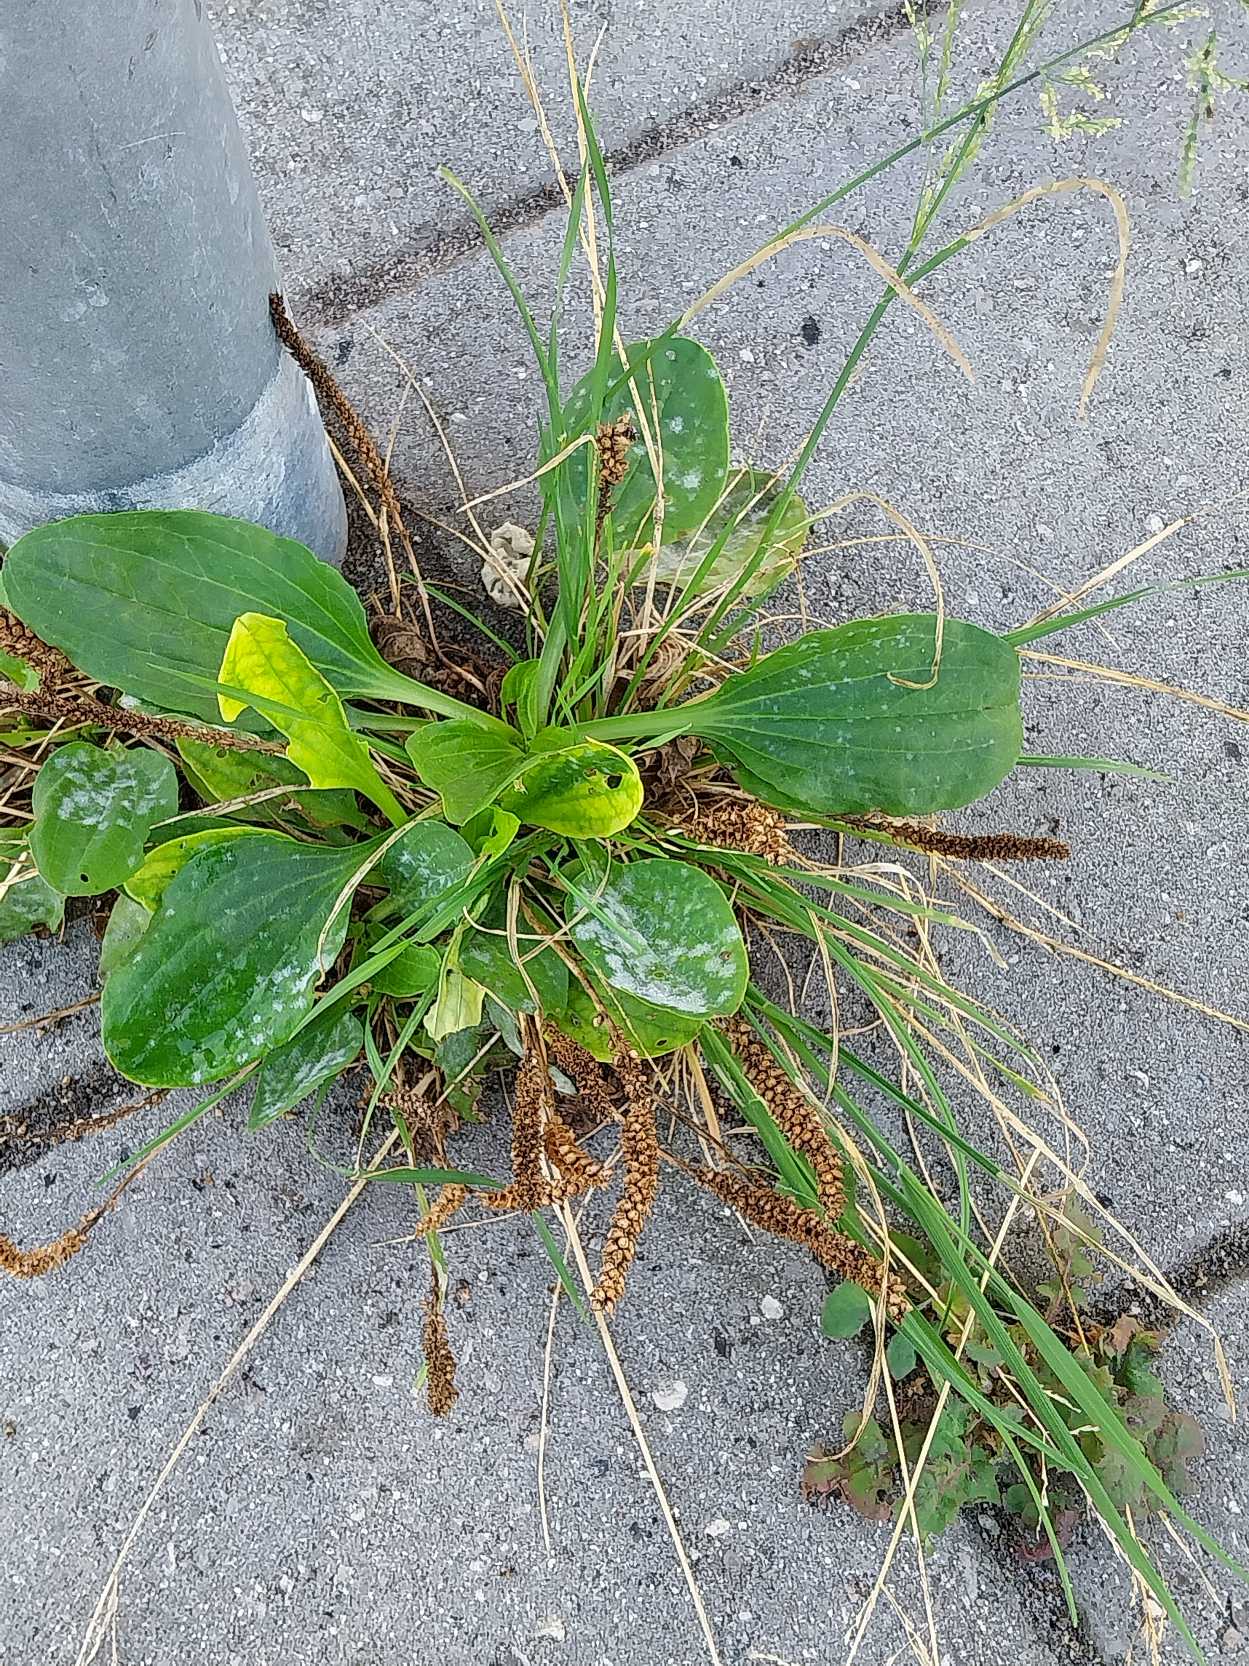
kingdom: Plantae
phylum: Tracheophyta
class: Magnoliopsida
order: Lamiales
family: Plantaginaceae
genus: Plantago
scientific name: Plantago major
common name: Glat vejbred
